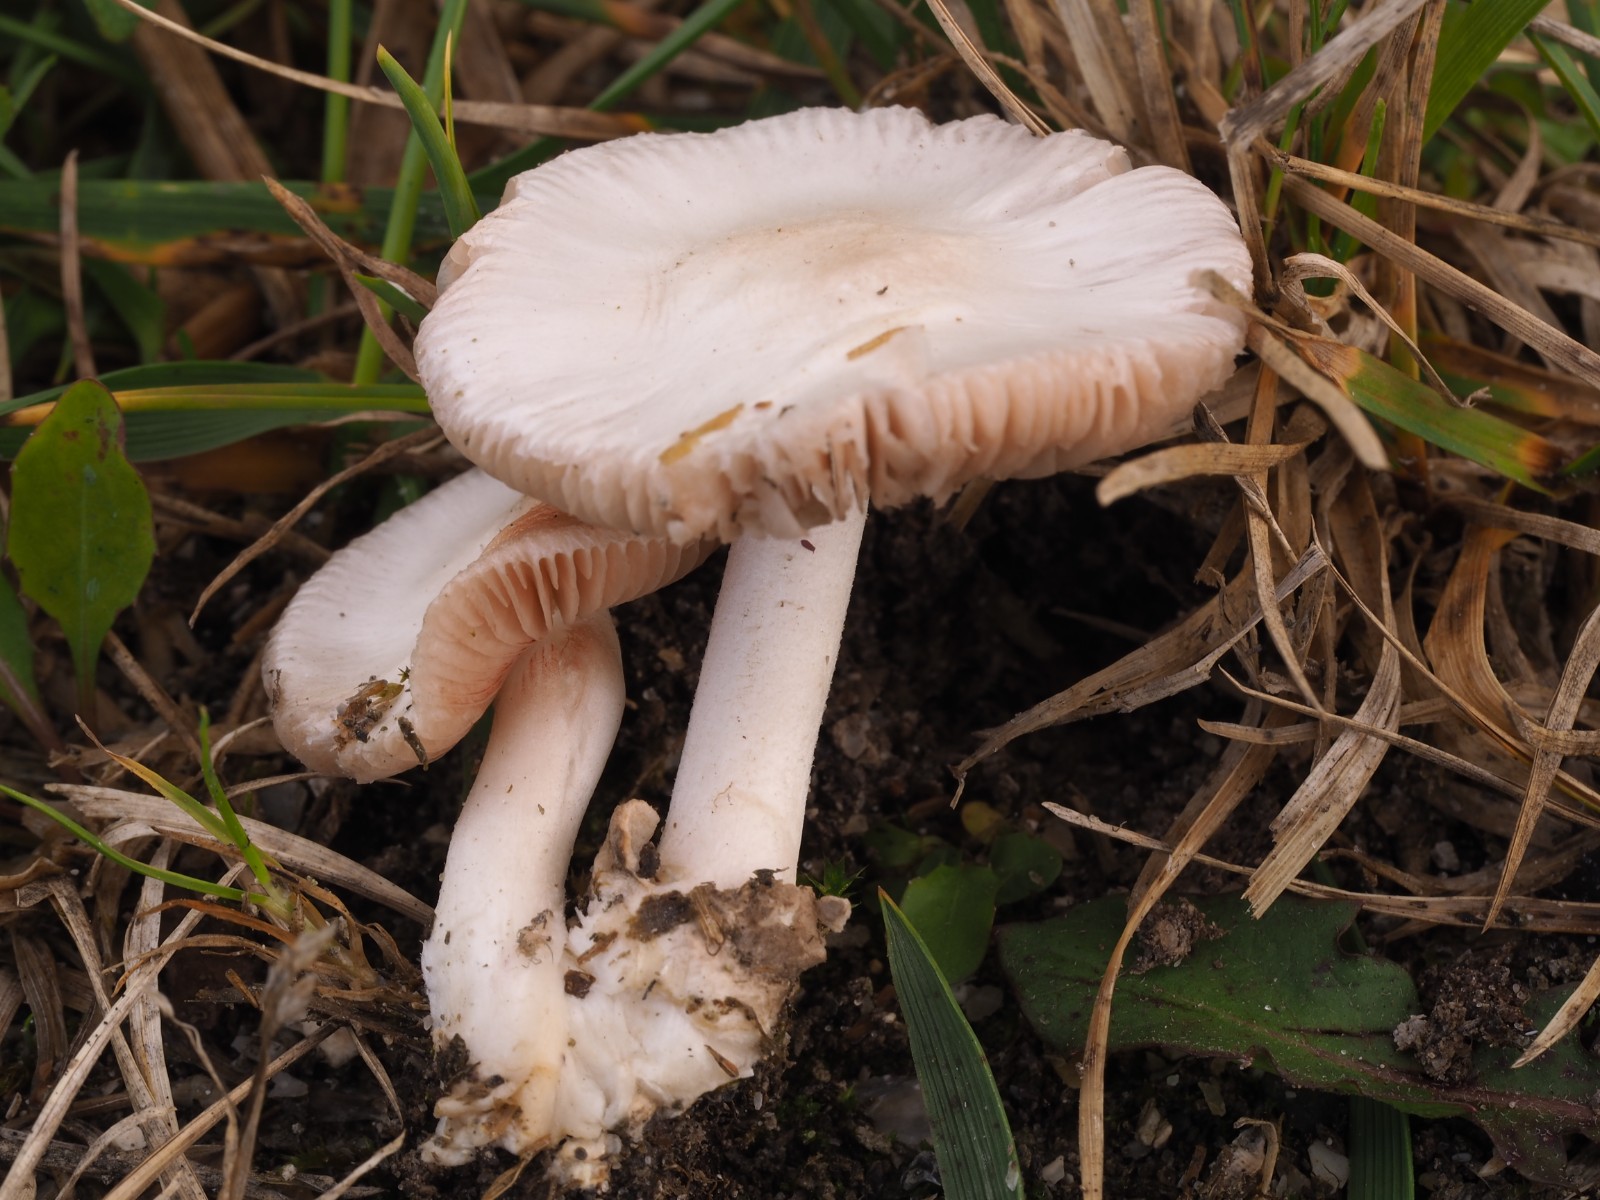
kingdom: Fungi
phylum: Basidiomycota
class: Agaricomycetes
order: Agaricales
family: Pluteaceae
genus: Volvariella
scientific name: Volvariella
